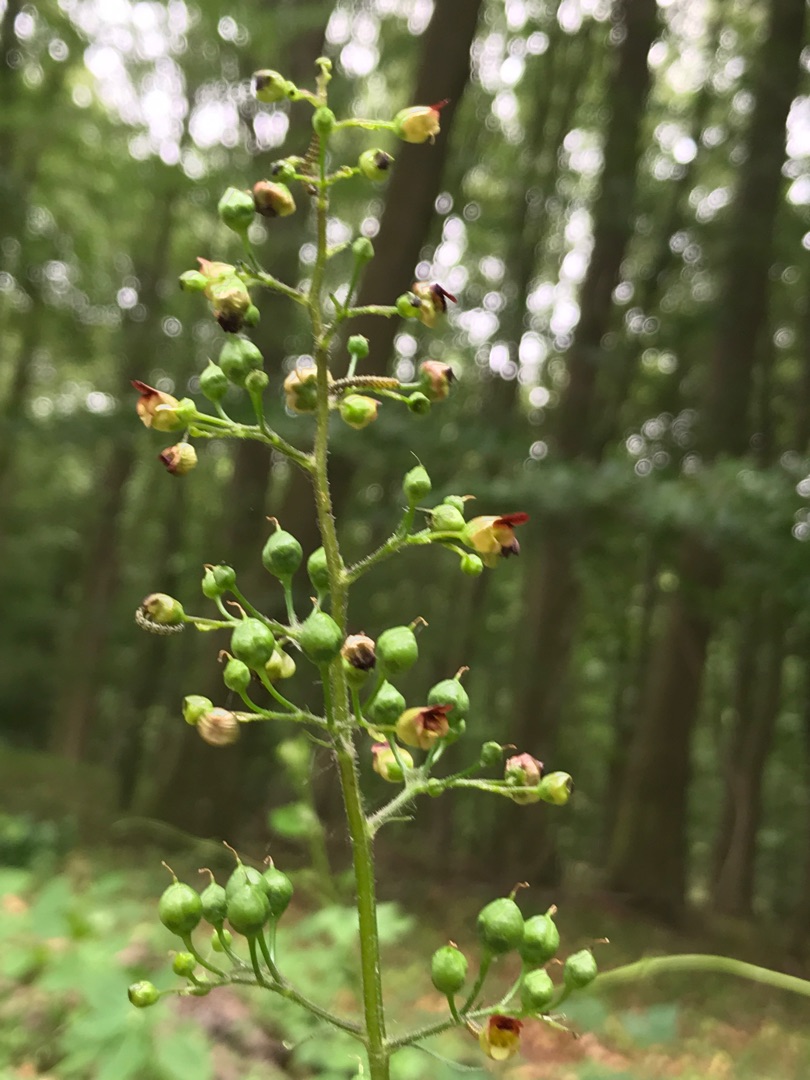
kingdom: Plantae
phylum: Tracheophyta
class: Magnoliopsida
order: Lamiales
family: Scrophulariaceae
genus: Scrophularia
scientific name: Scrophularia nodosa
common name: Knoldet brunrod
